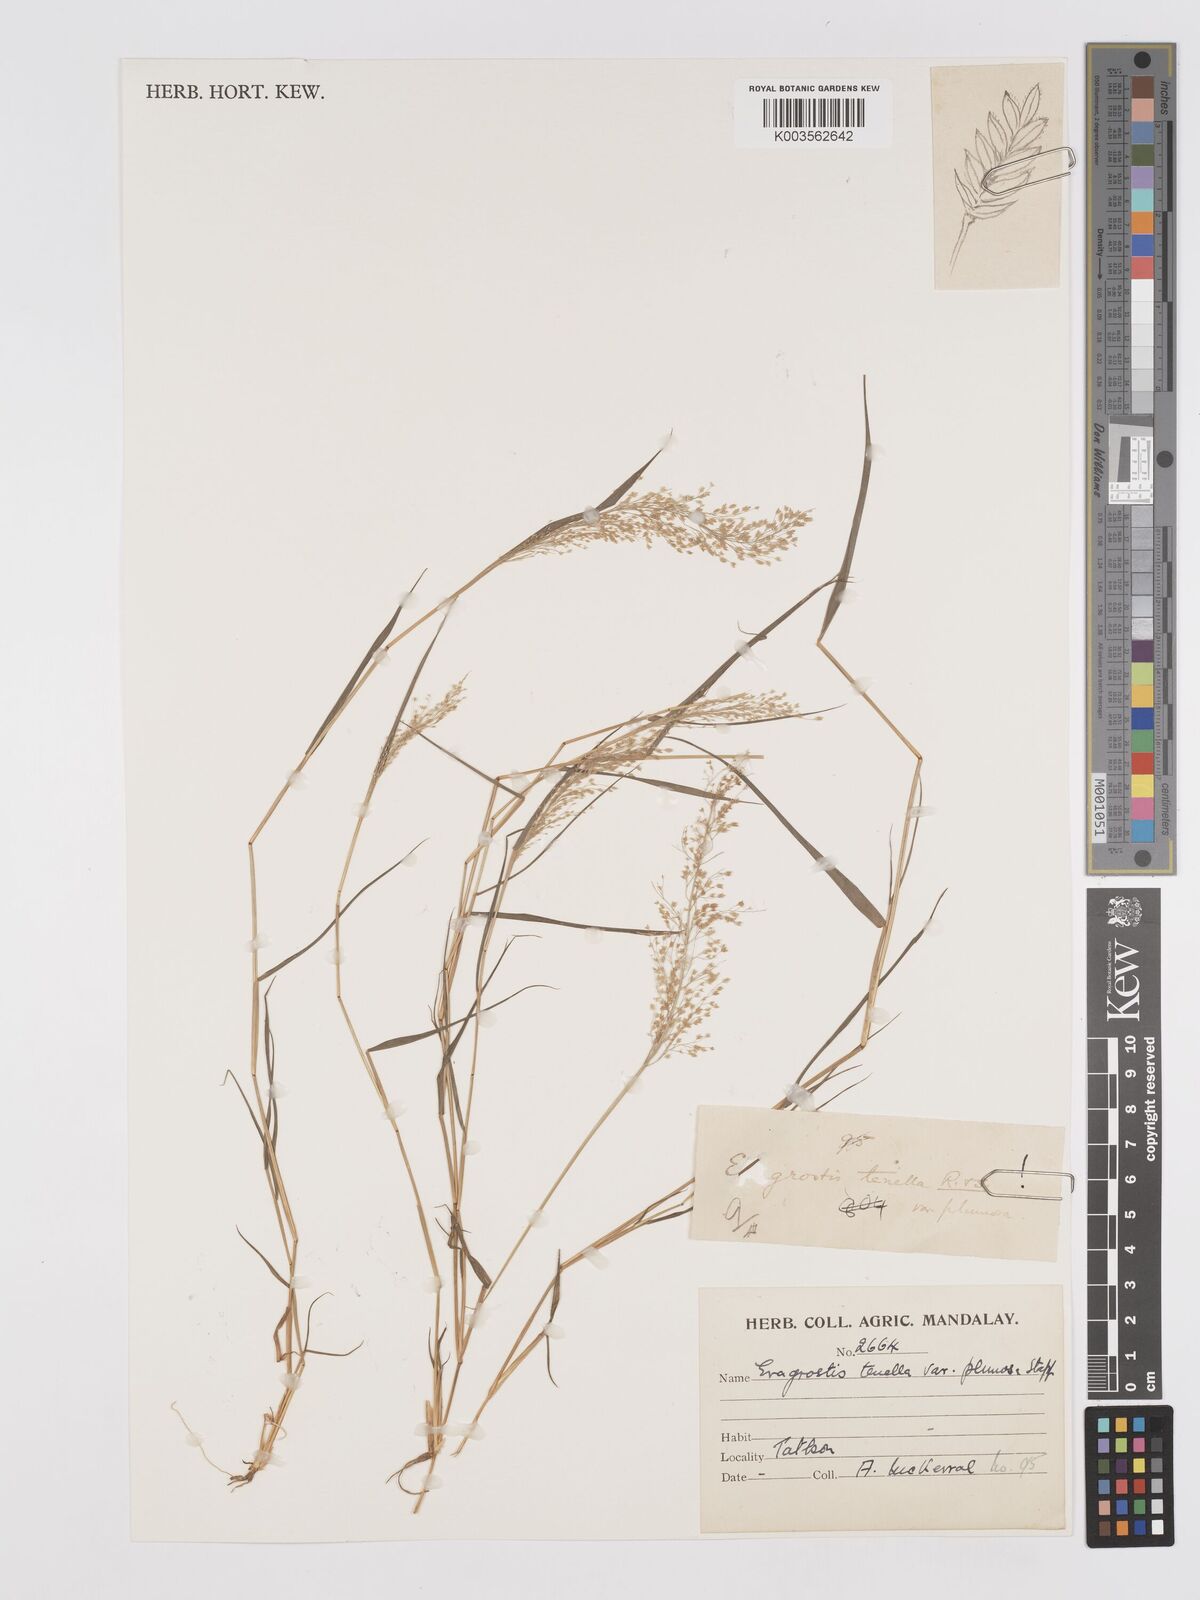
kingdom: Plantae
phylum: Tracheophyta
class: Liliopsida
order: Poales
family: Poaceae
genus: Eragrostis
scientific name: Eragrostis tenella
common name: Japanese lovegrass
